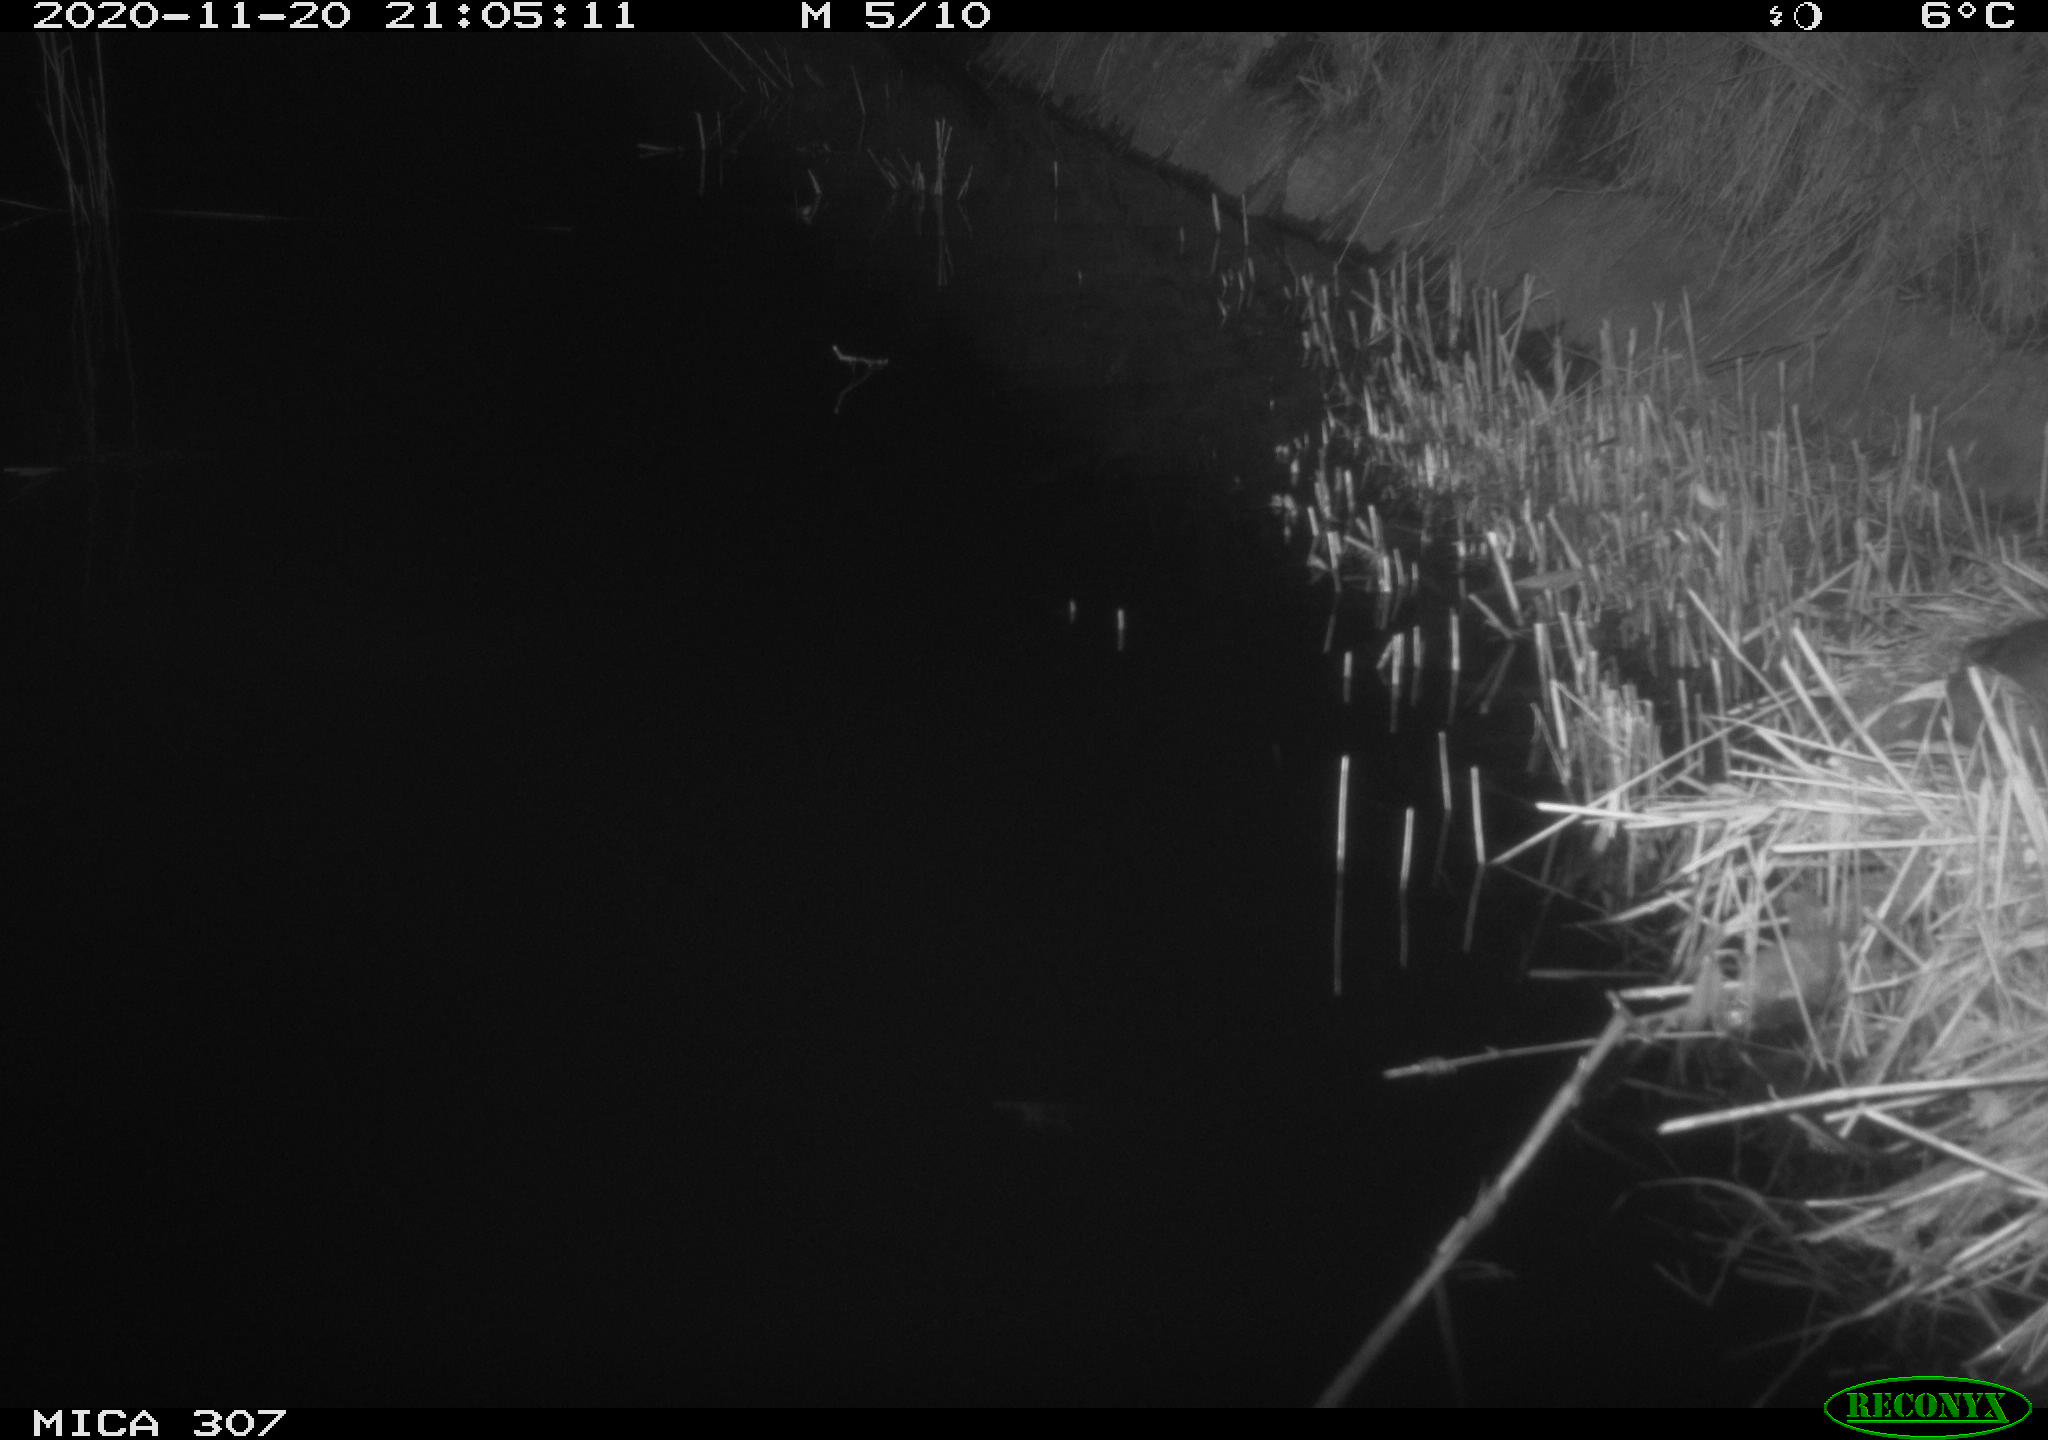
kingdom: Animalia
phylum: Chordata
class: Mammalia
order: Rodentia
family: Muridae
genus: Rattus
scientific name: Rattus norvegicus
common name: Brown rat
